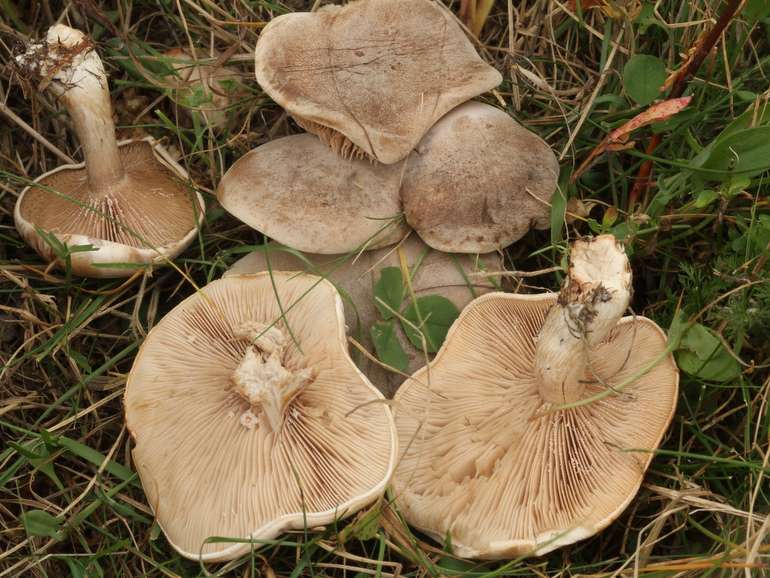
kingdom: Fungi
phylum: Basidiomycota
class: Agaricomycetes
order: Agaricales
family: Tricholomataceae
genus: Lepista
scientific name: Lepista panaeolus
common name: marmoreret hekseringshat
